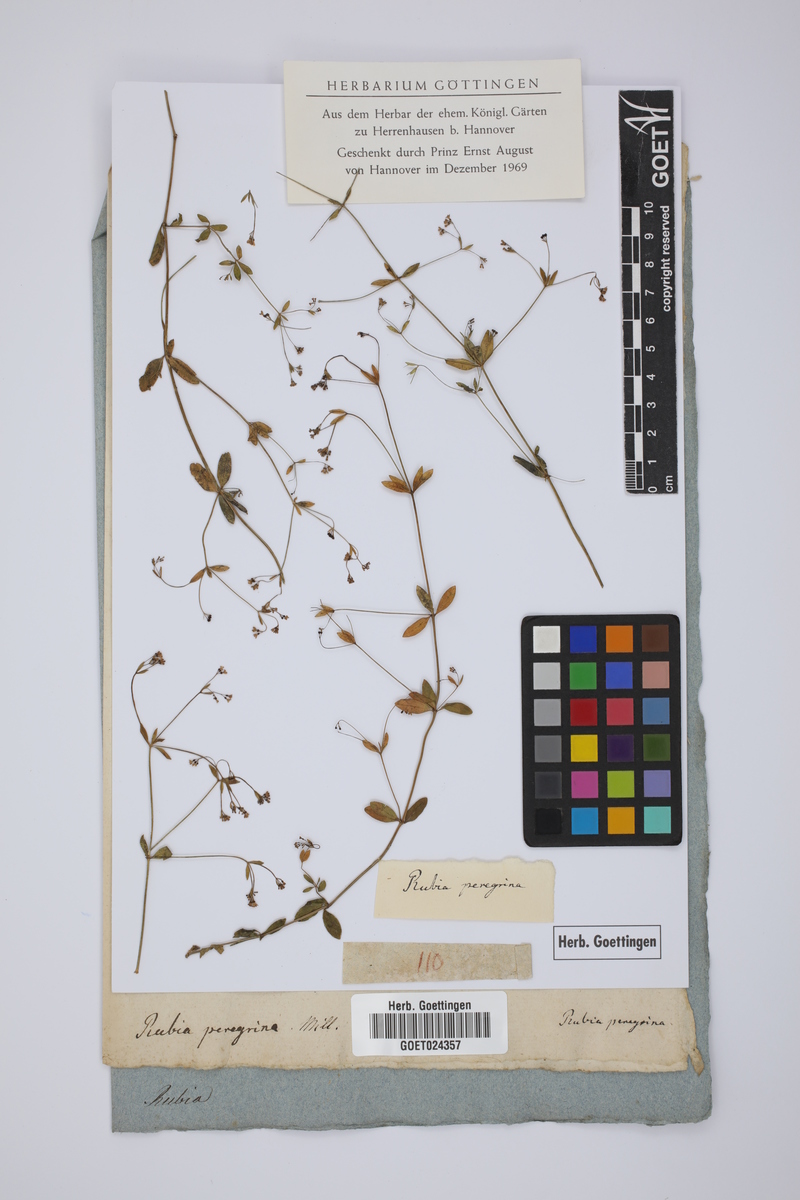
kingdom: Plantae
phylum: Tracheophyta
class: Magnoliopsida
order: Gentianales
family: Rubiaceae
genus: Rubia
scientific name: Rubia peregrina
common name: Wild madder
